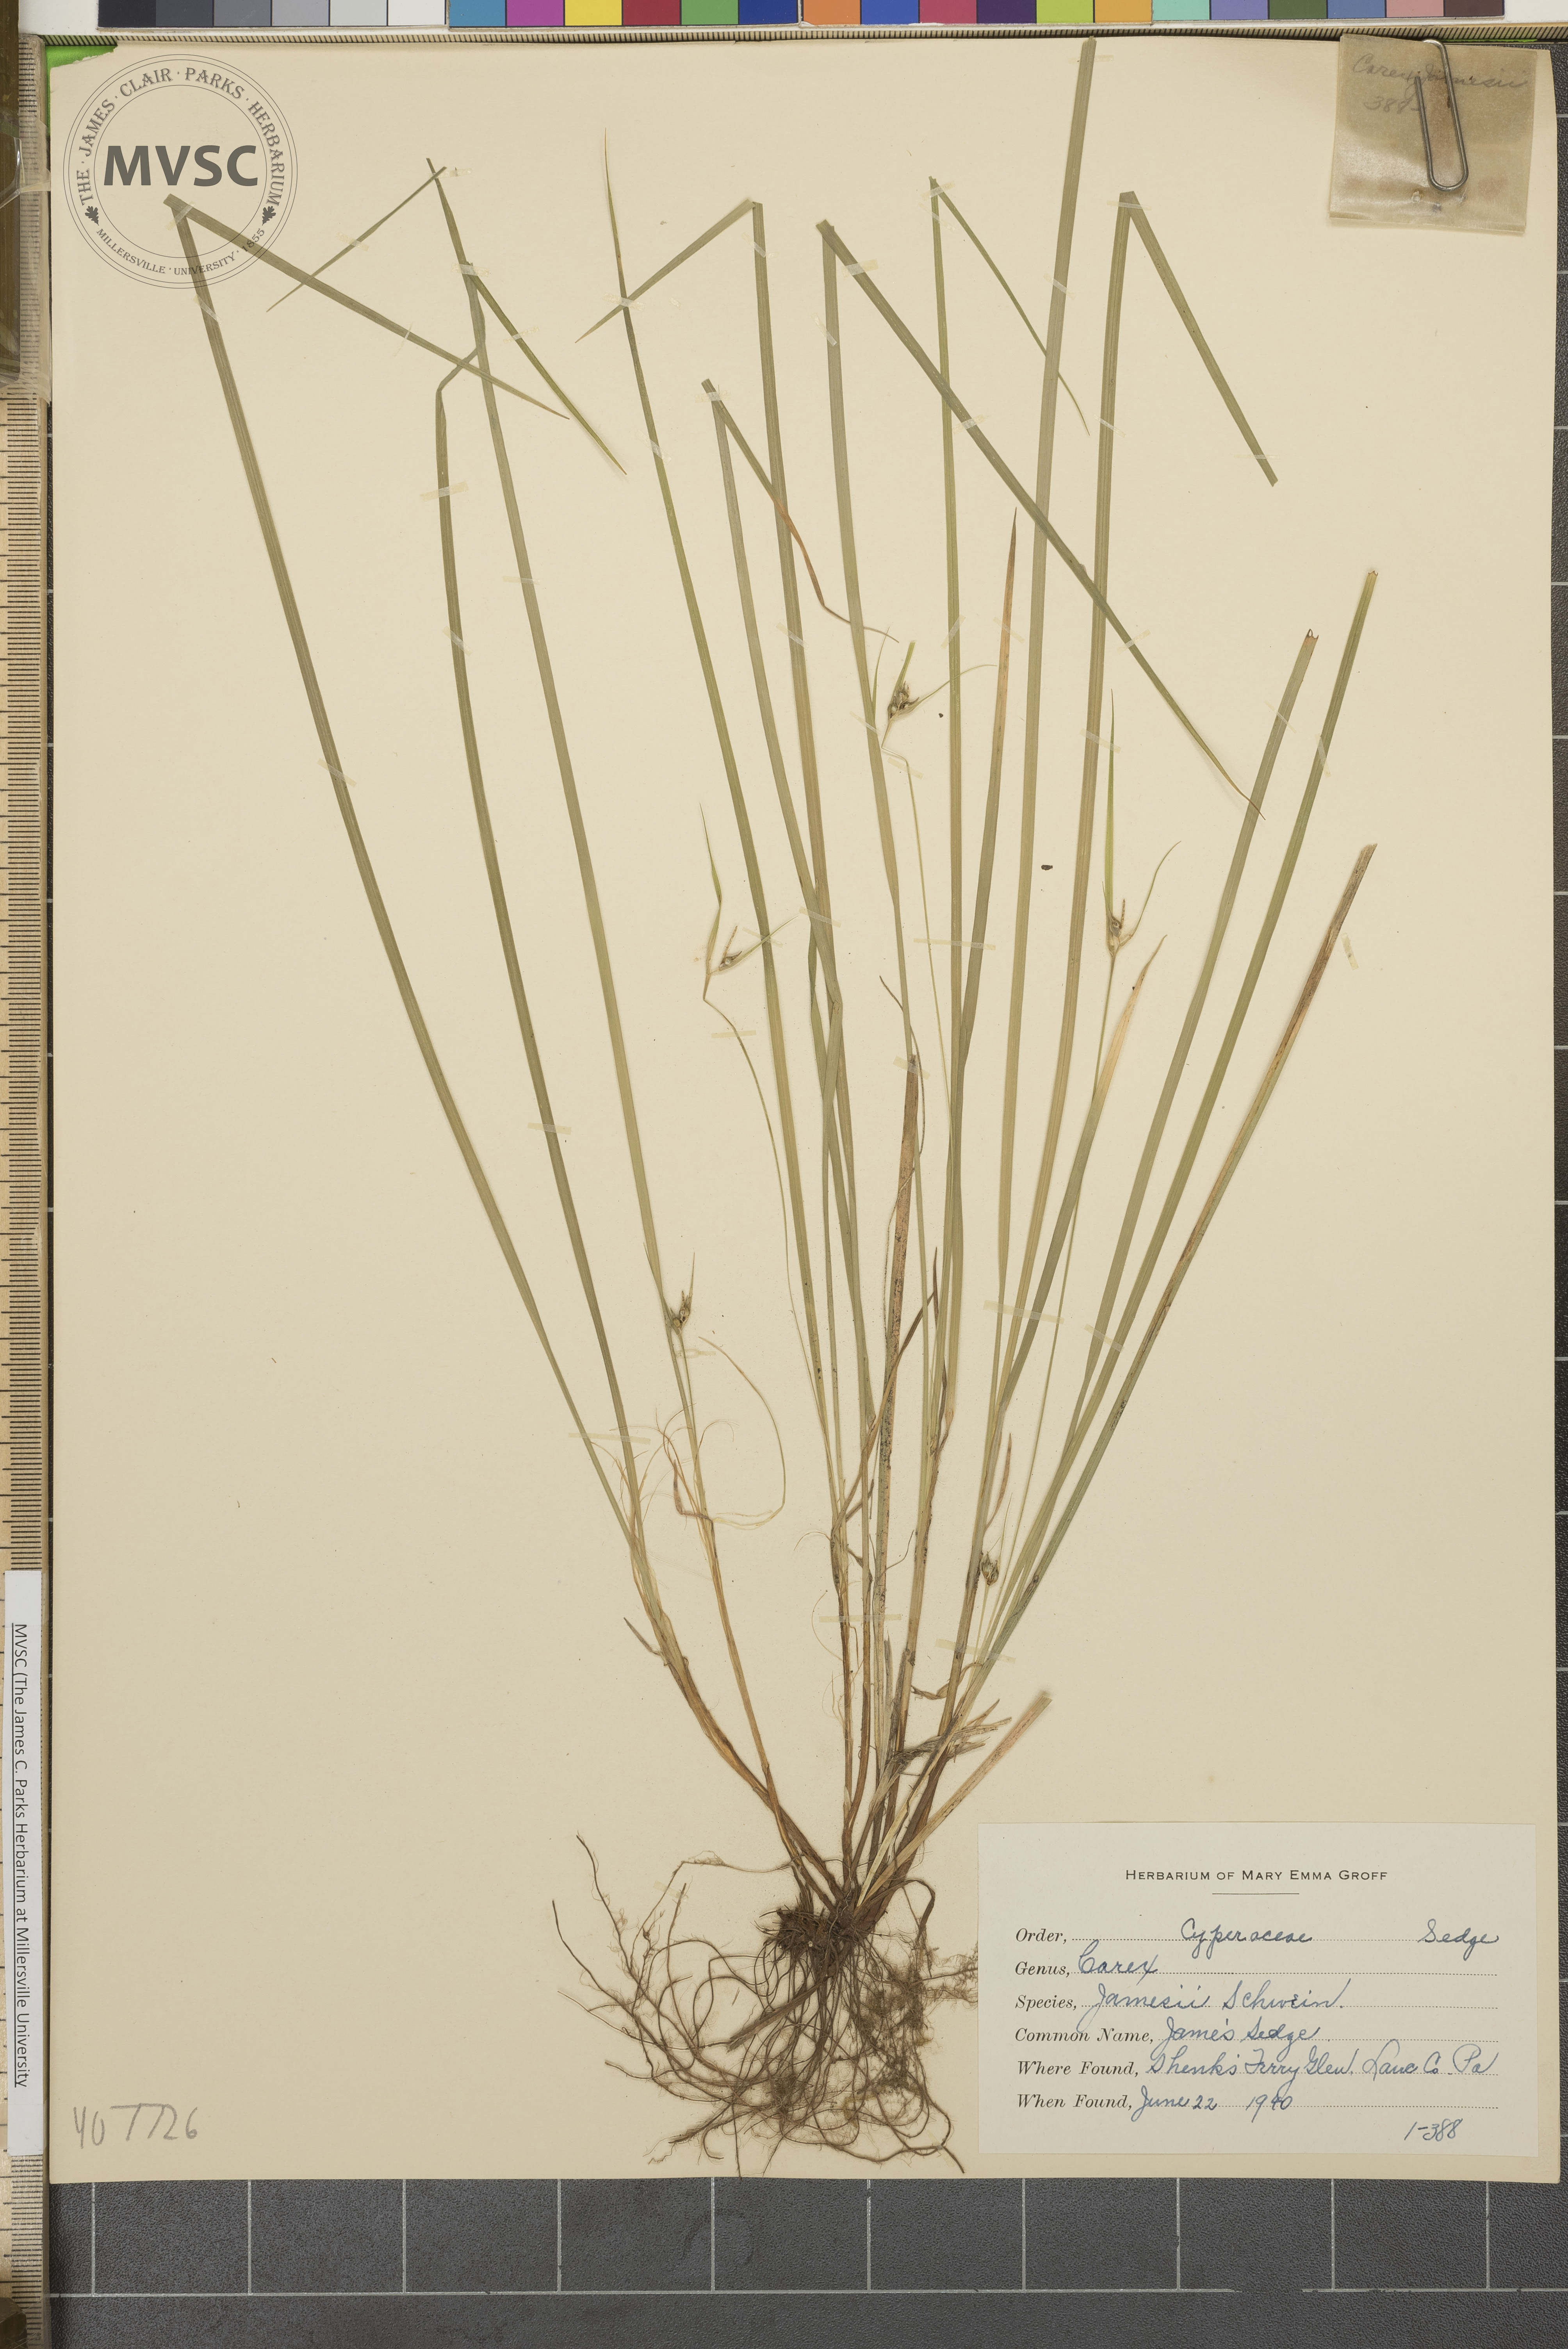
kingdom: Plantae
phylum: Tracheophyta
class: Liliopsida
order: Poales
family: Cyperaceae
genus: Carex
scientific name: Carex jamesii
